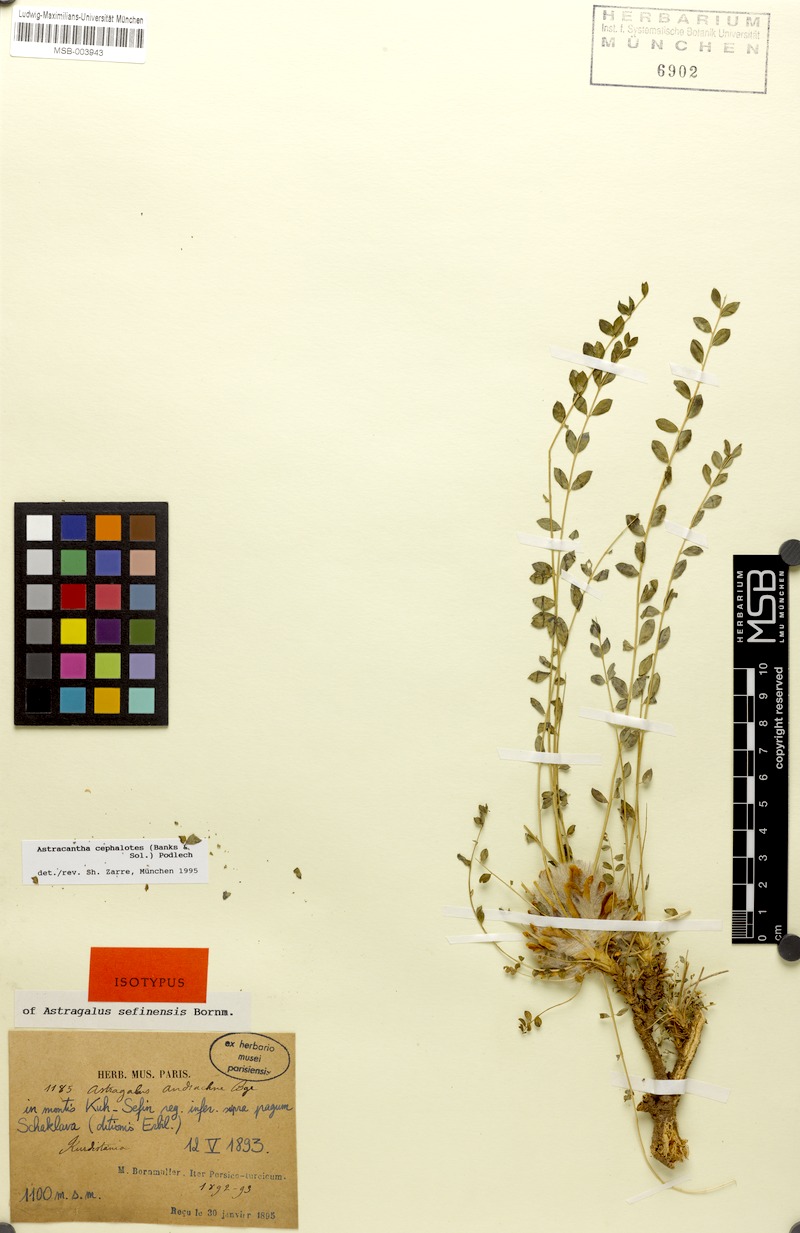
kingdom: Plantae
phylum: Tracheophyta
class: Magnoliopsida
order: Fabales
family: Fabaceae
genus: Astragalus
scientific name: Astragalus echinatus
